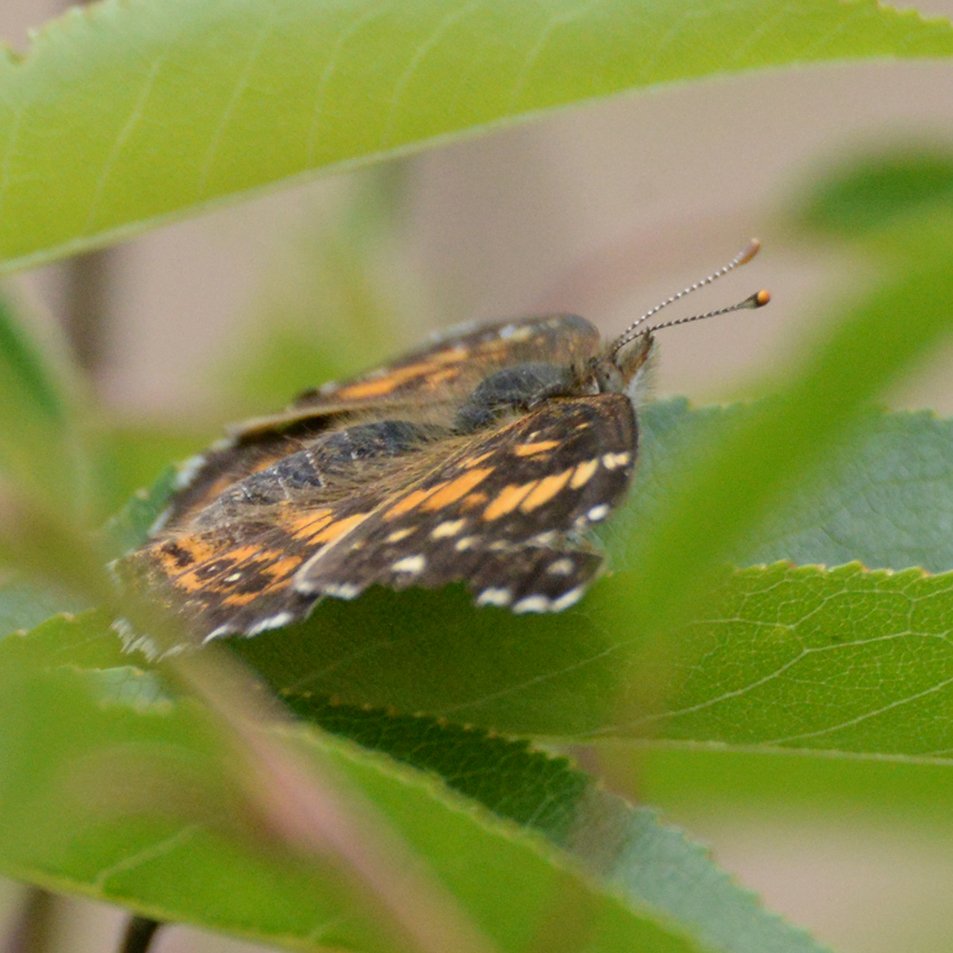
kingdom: Animalia
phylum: Arthropoda
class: Insecta
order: Lepidoptera
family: Nymphalidae
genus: Chlosyne
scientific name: Chlosyne nycteis
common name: Silvery Checkerspot
